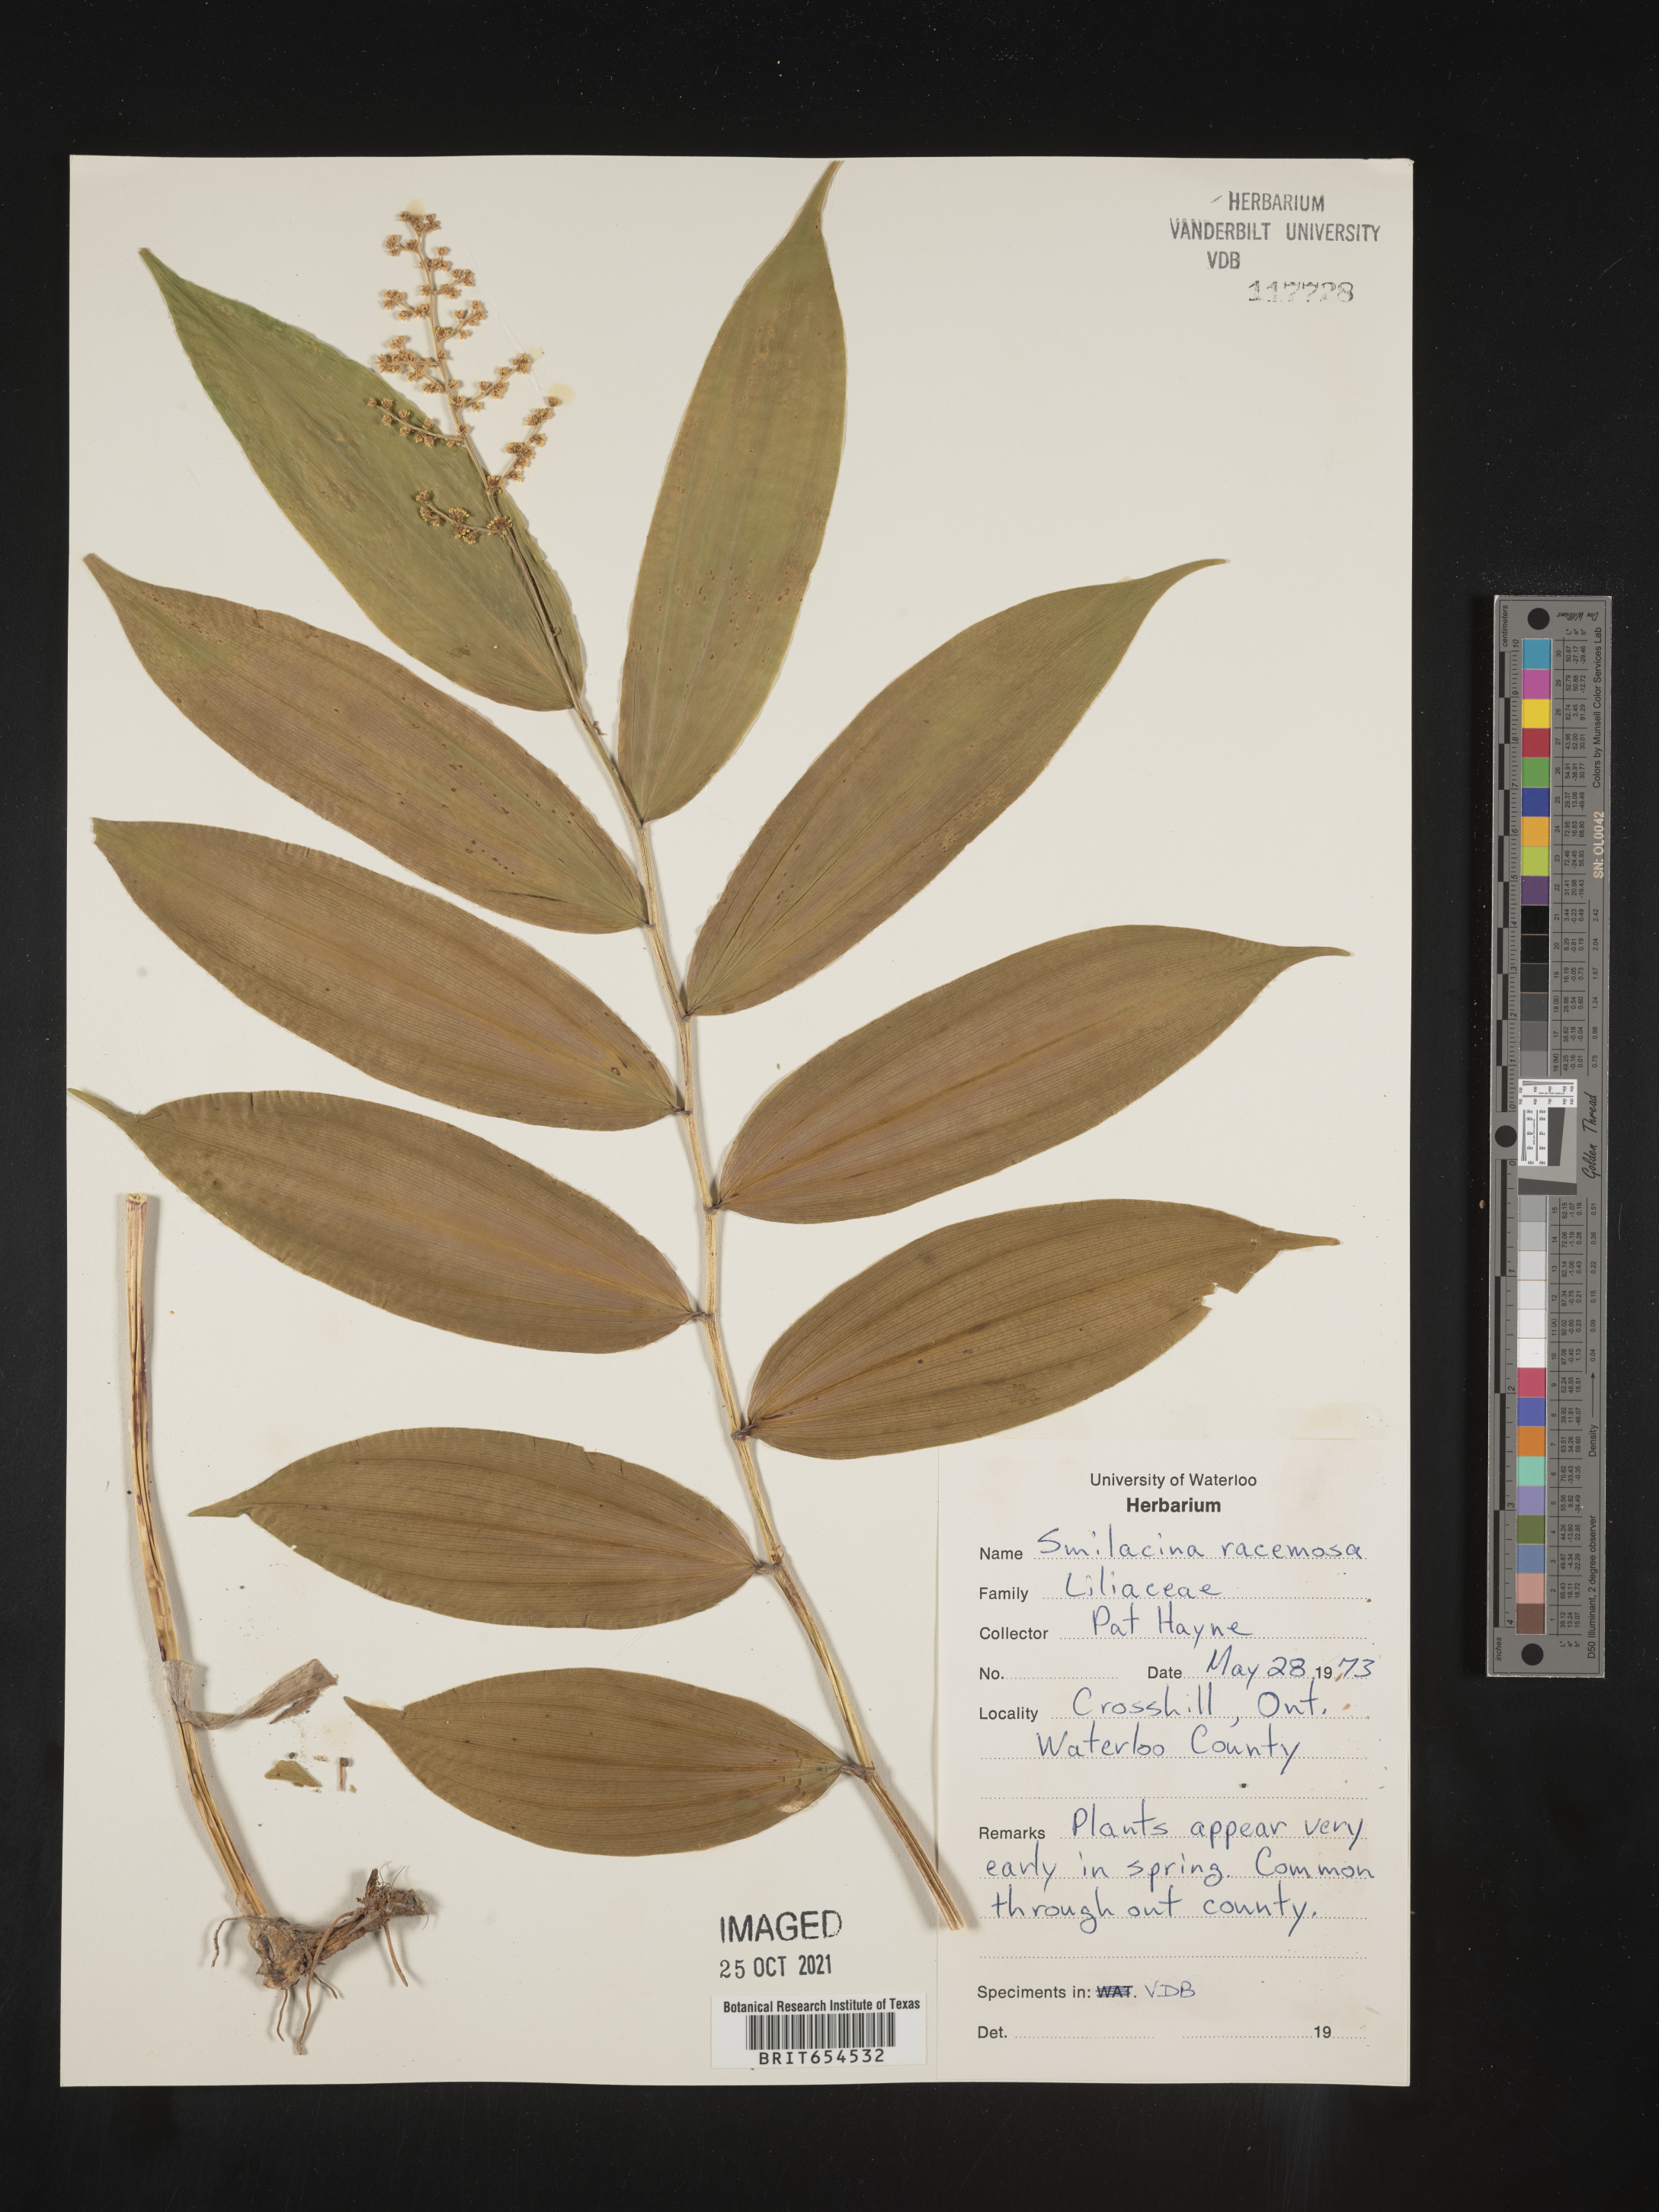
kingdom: Plantae
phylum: Tracheophyta
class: Liliopsida
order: Asparagales
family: Asparagaceae
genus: Maianthemum
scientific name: Maianthemum racemosum
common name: False spikenard
